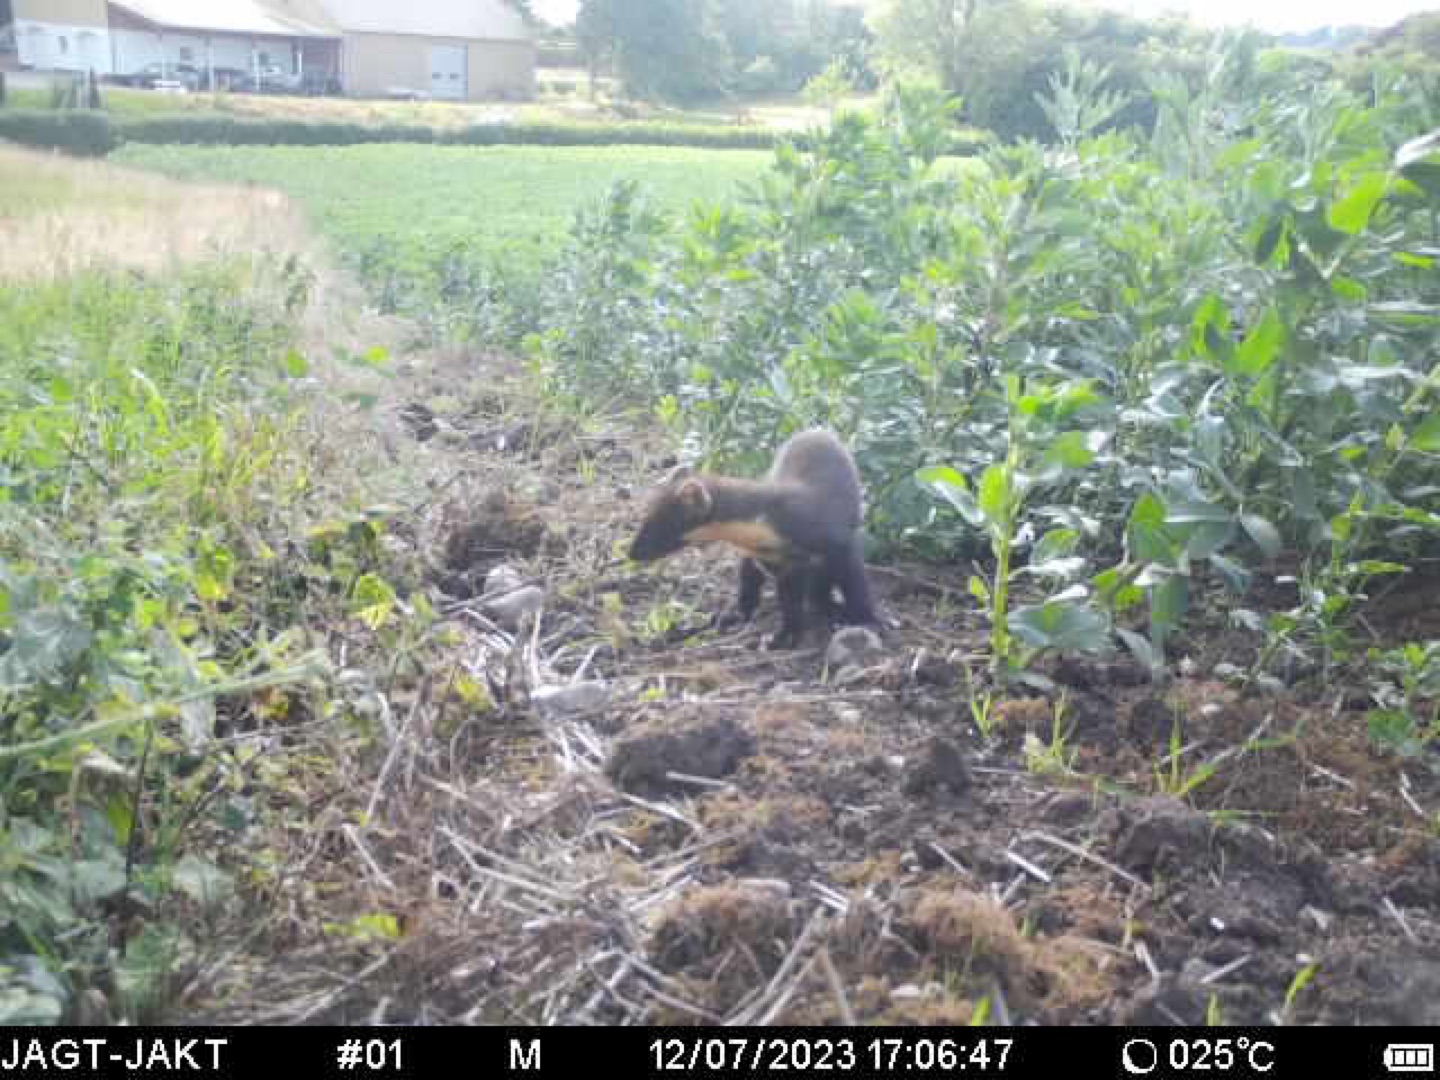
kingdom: Animalia
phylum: Chordata
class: Mammalia
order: Carnivora
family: Mustelidae
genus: Martes
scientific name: Martes martes
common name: Skovmår
